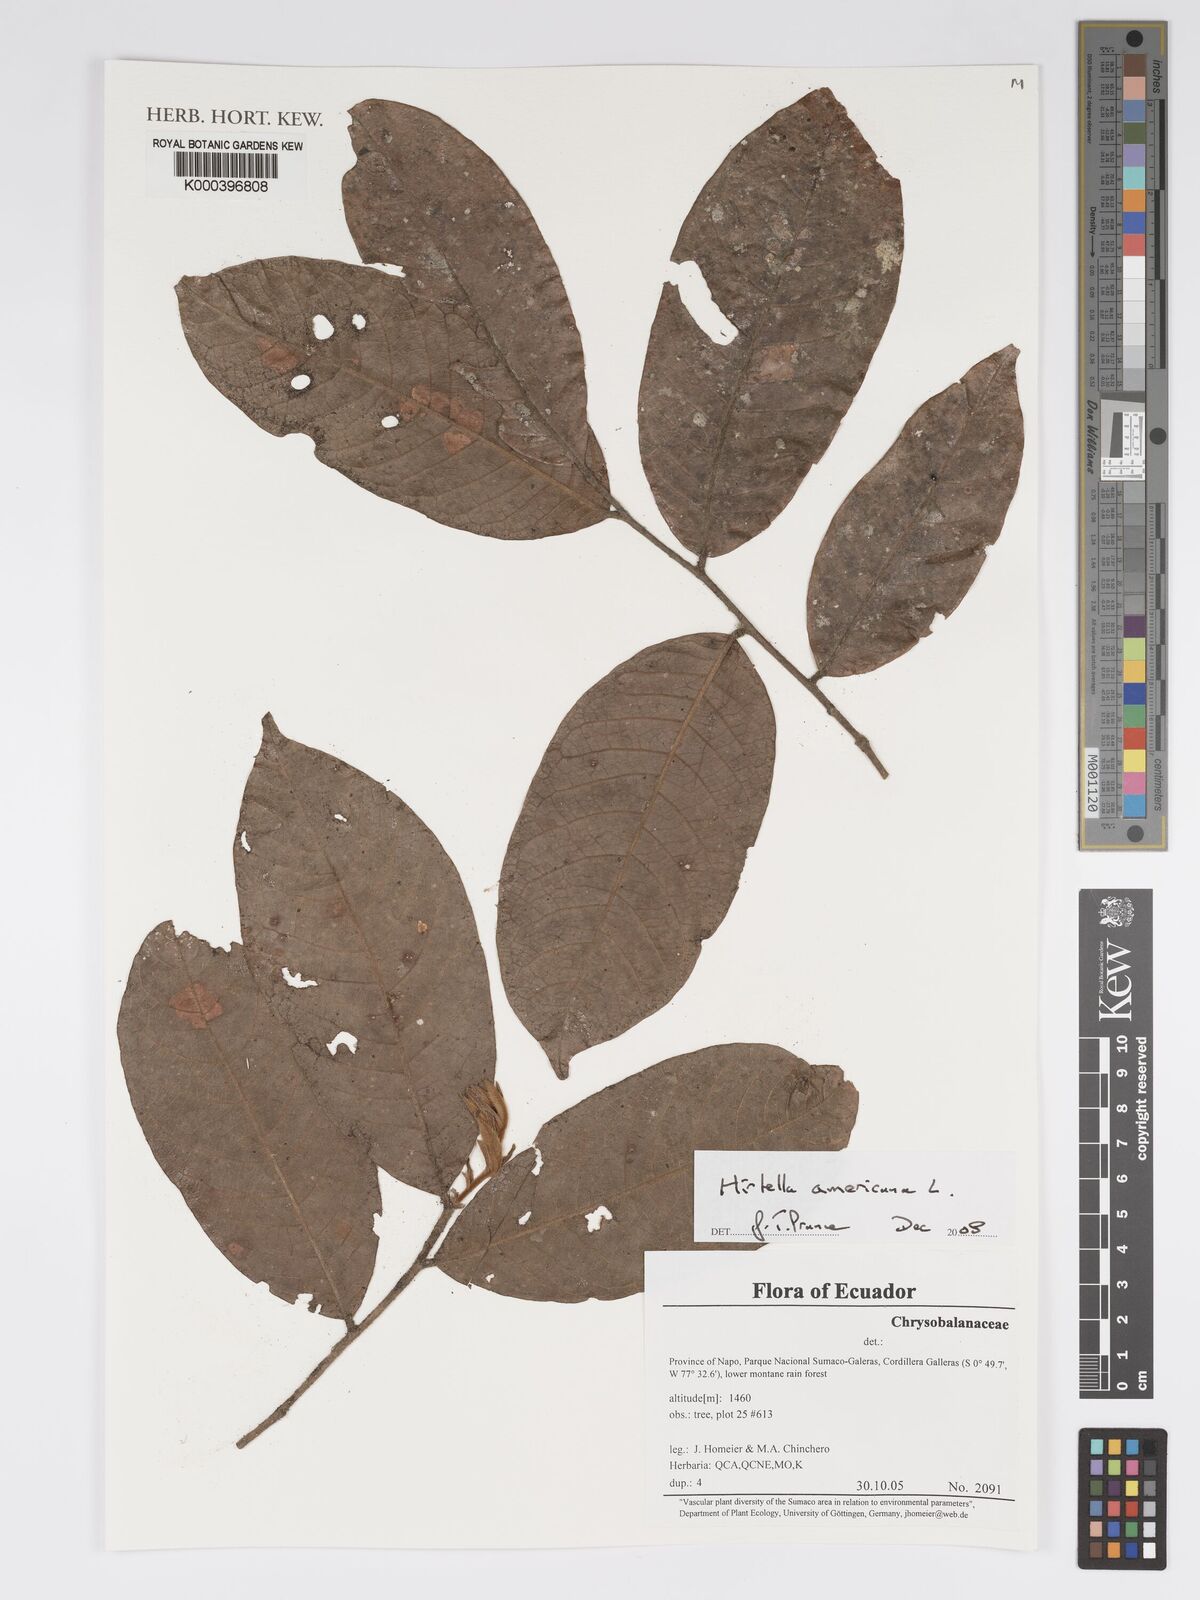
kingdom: Plantae
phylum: Tracheophyta
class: Magnoliopsida
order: Malpighiales
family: Chrysobalanaceae
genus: Hirtella
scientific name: Hirtella americana
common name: Pigeon-plum
